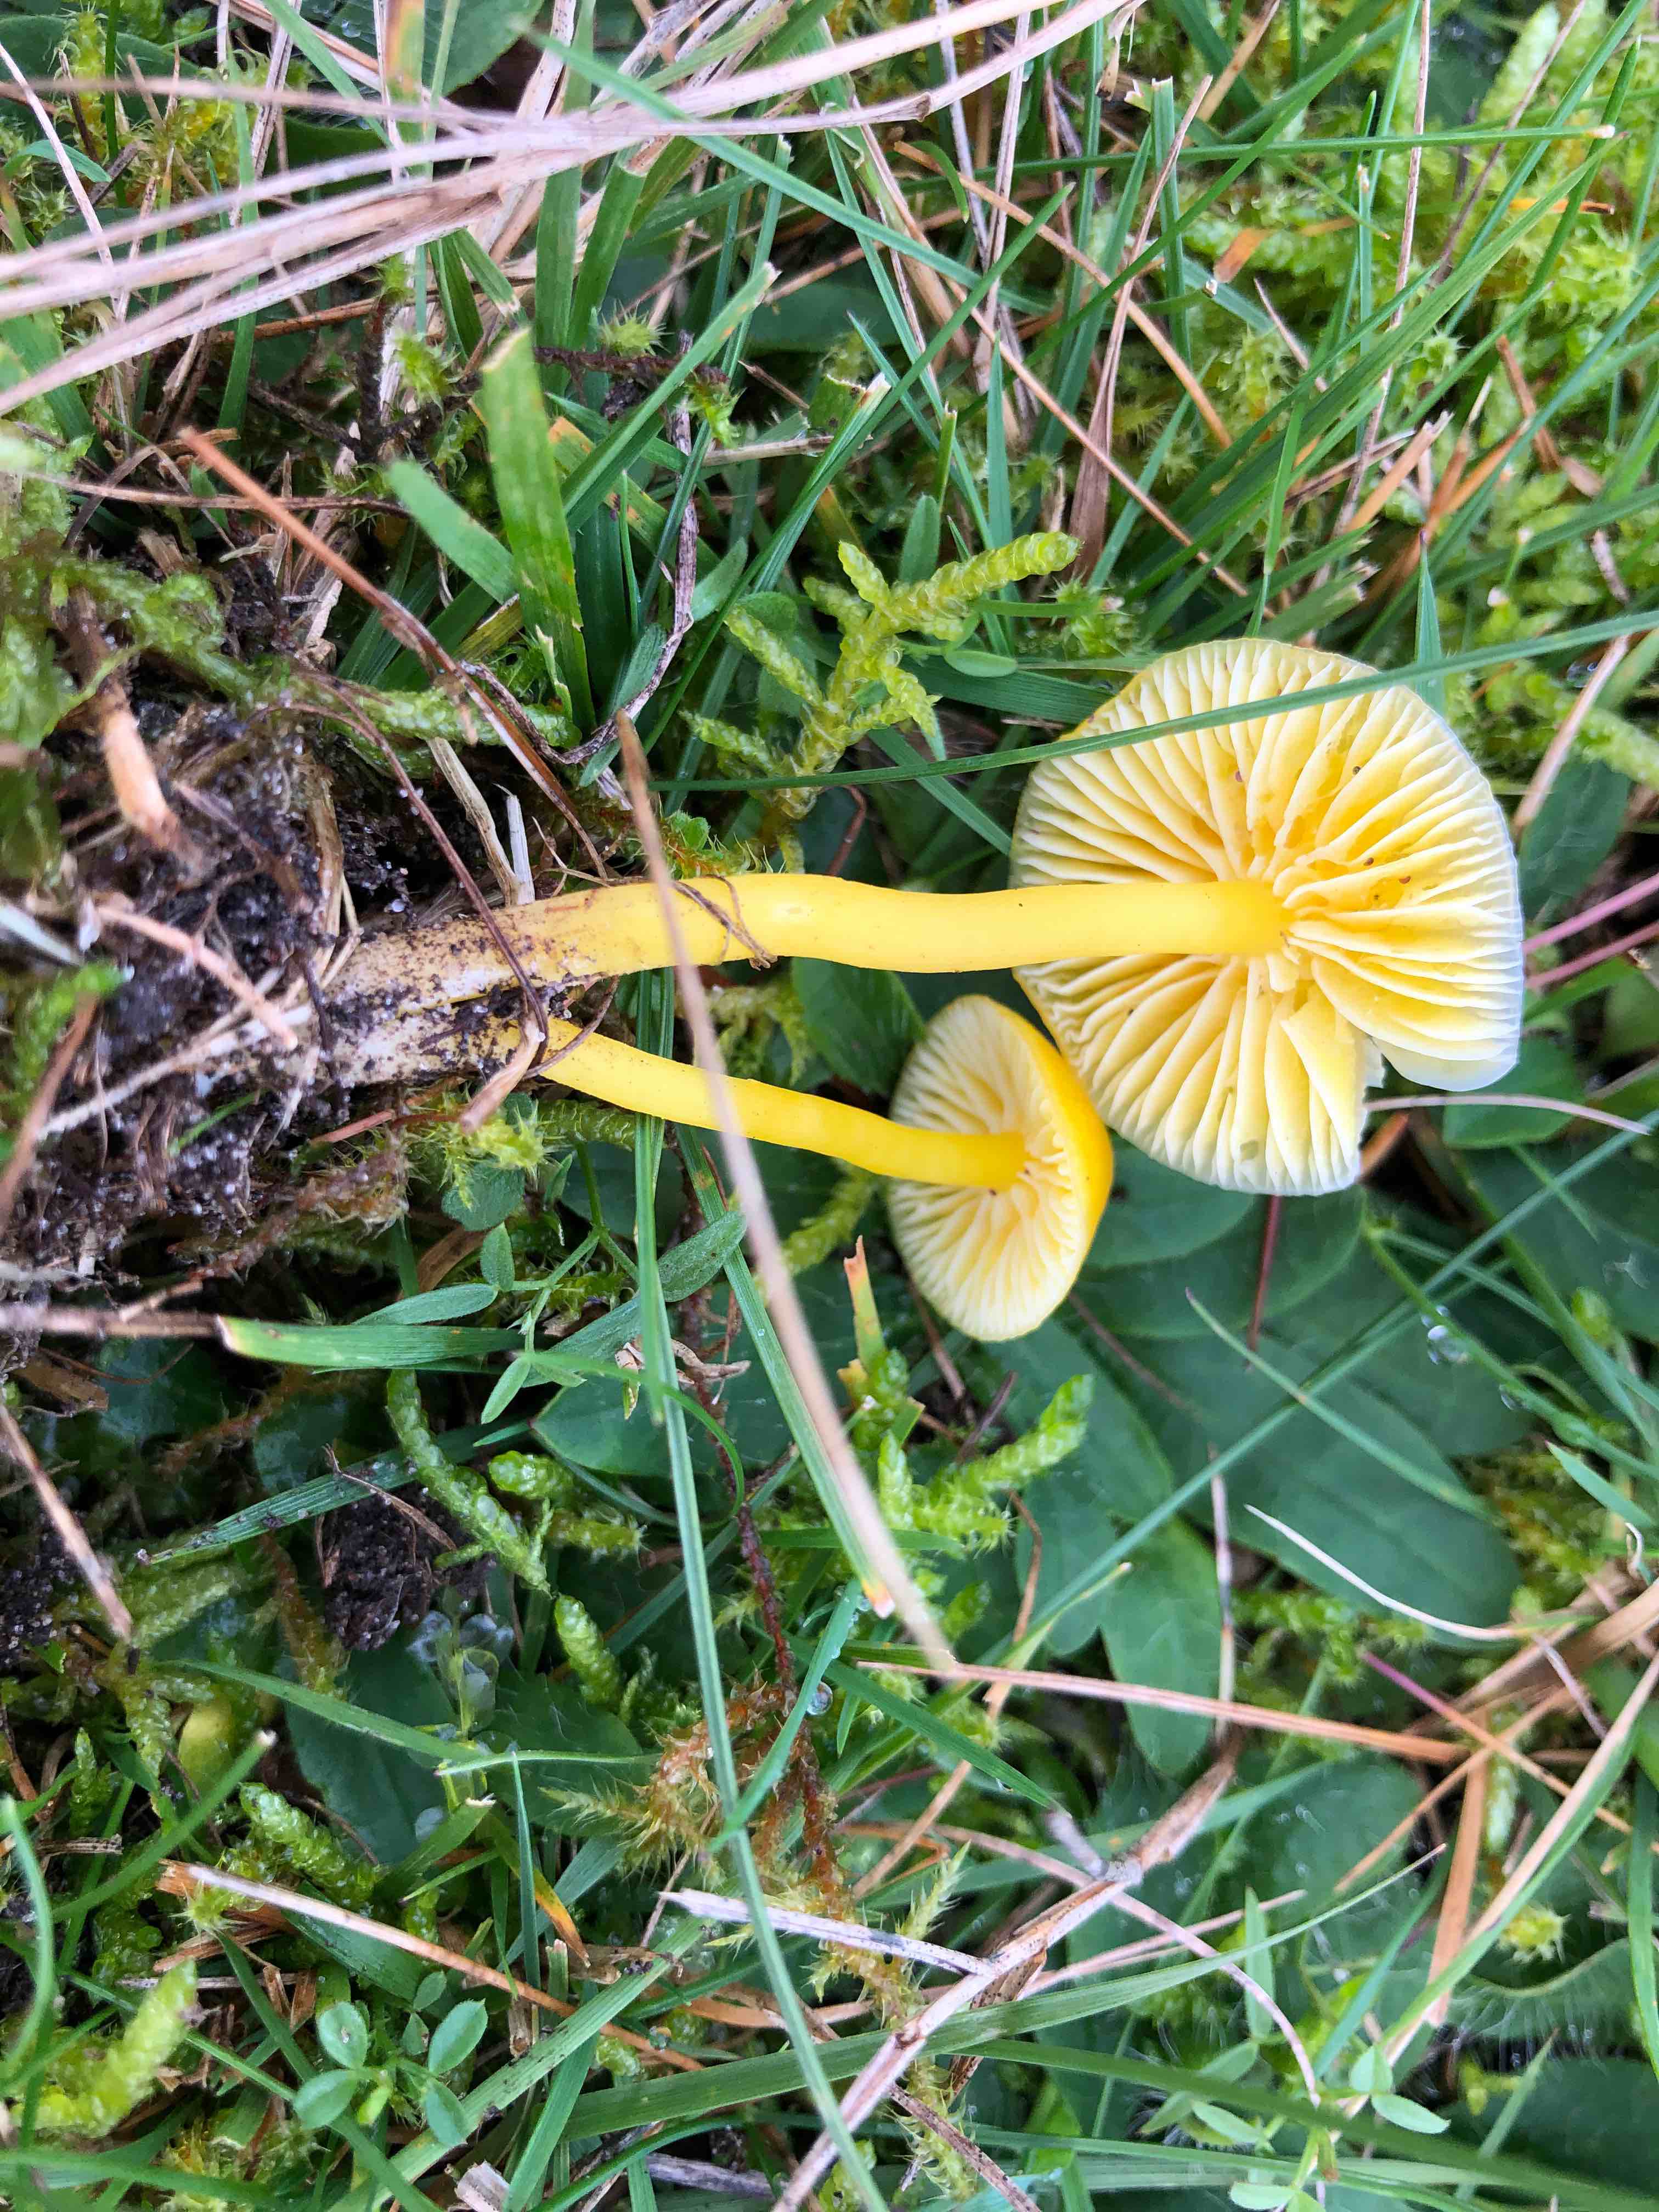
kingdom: Fungi
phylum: Basidiomycota
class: Agaricomycetes
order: Agaricales
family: Hygrophoraceae
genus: Hygrocybe
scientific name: Hygrocybe ceracea
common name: voksgul vokshat
